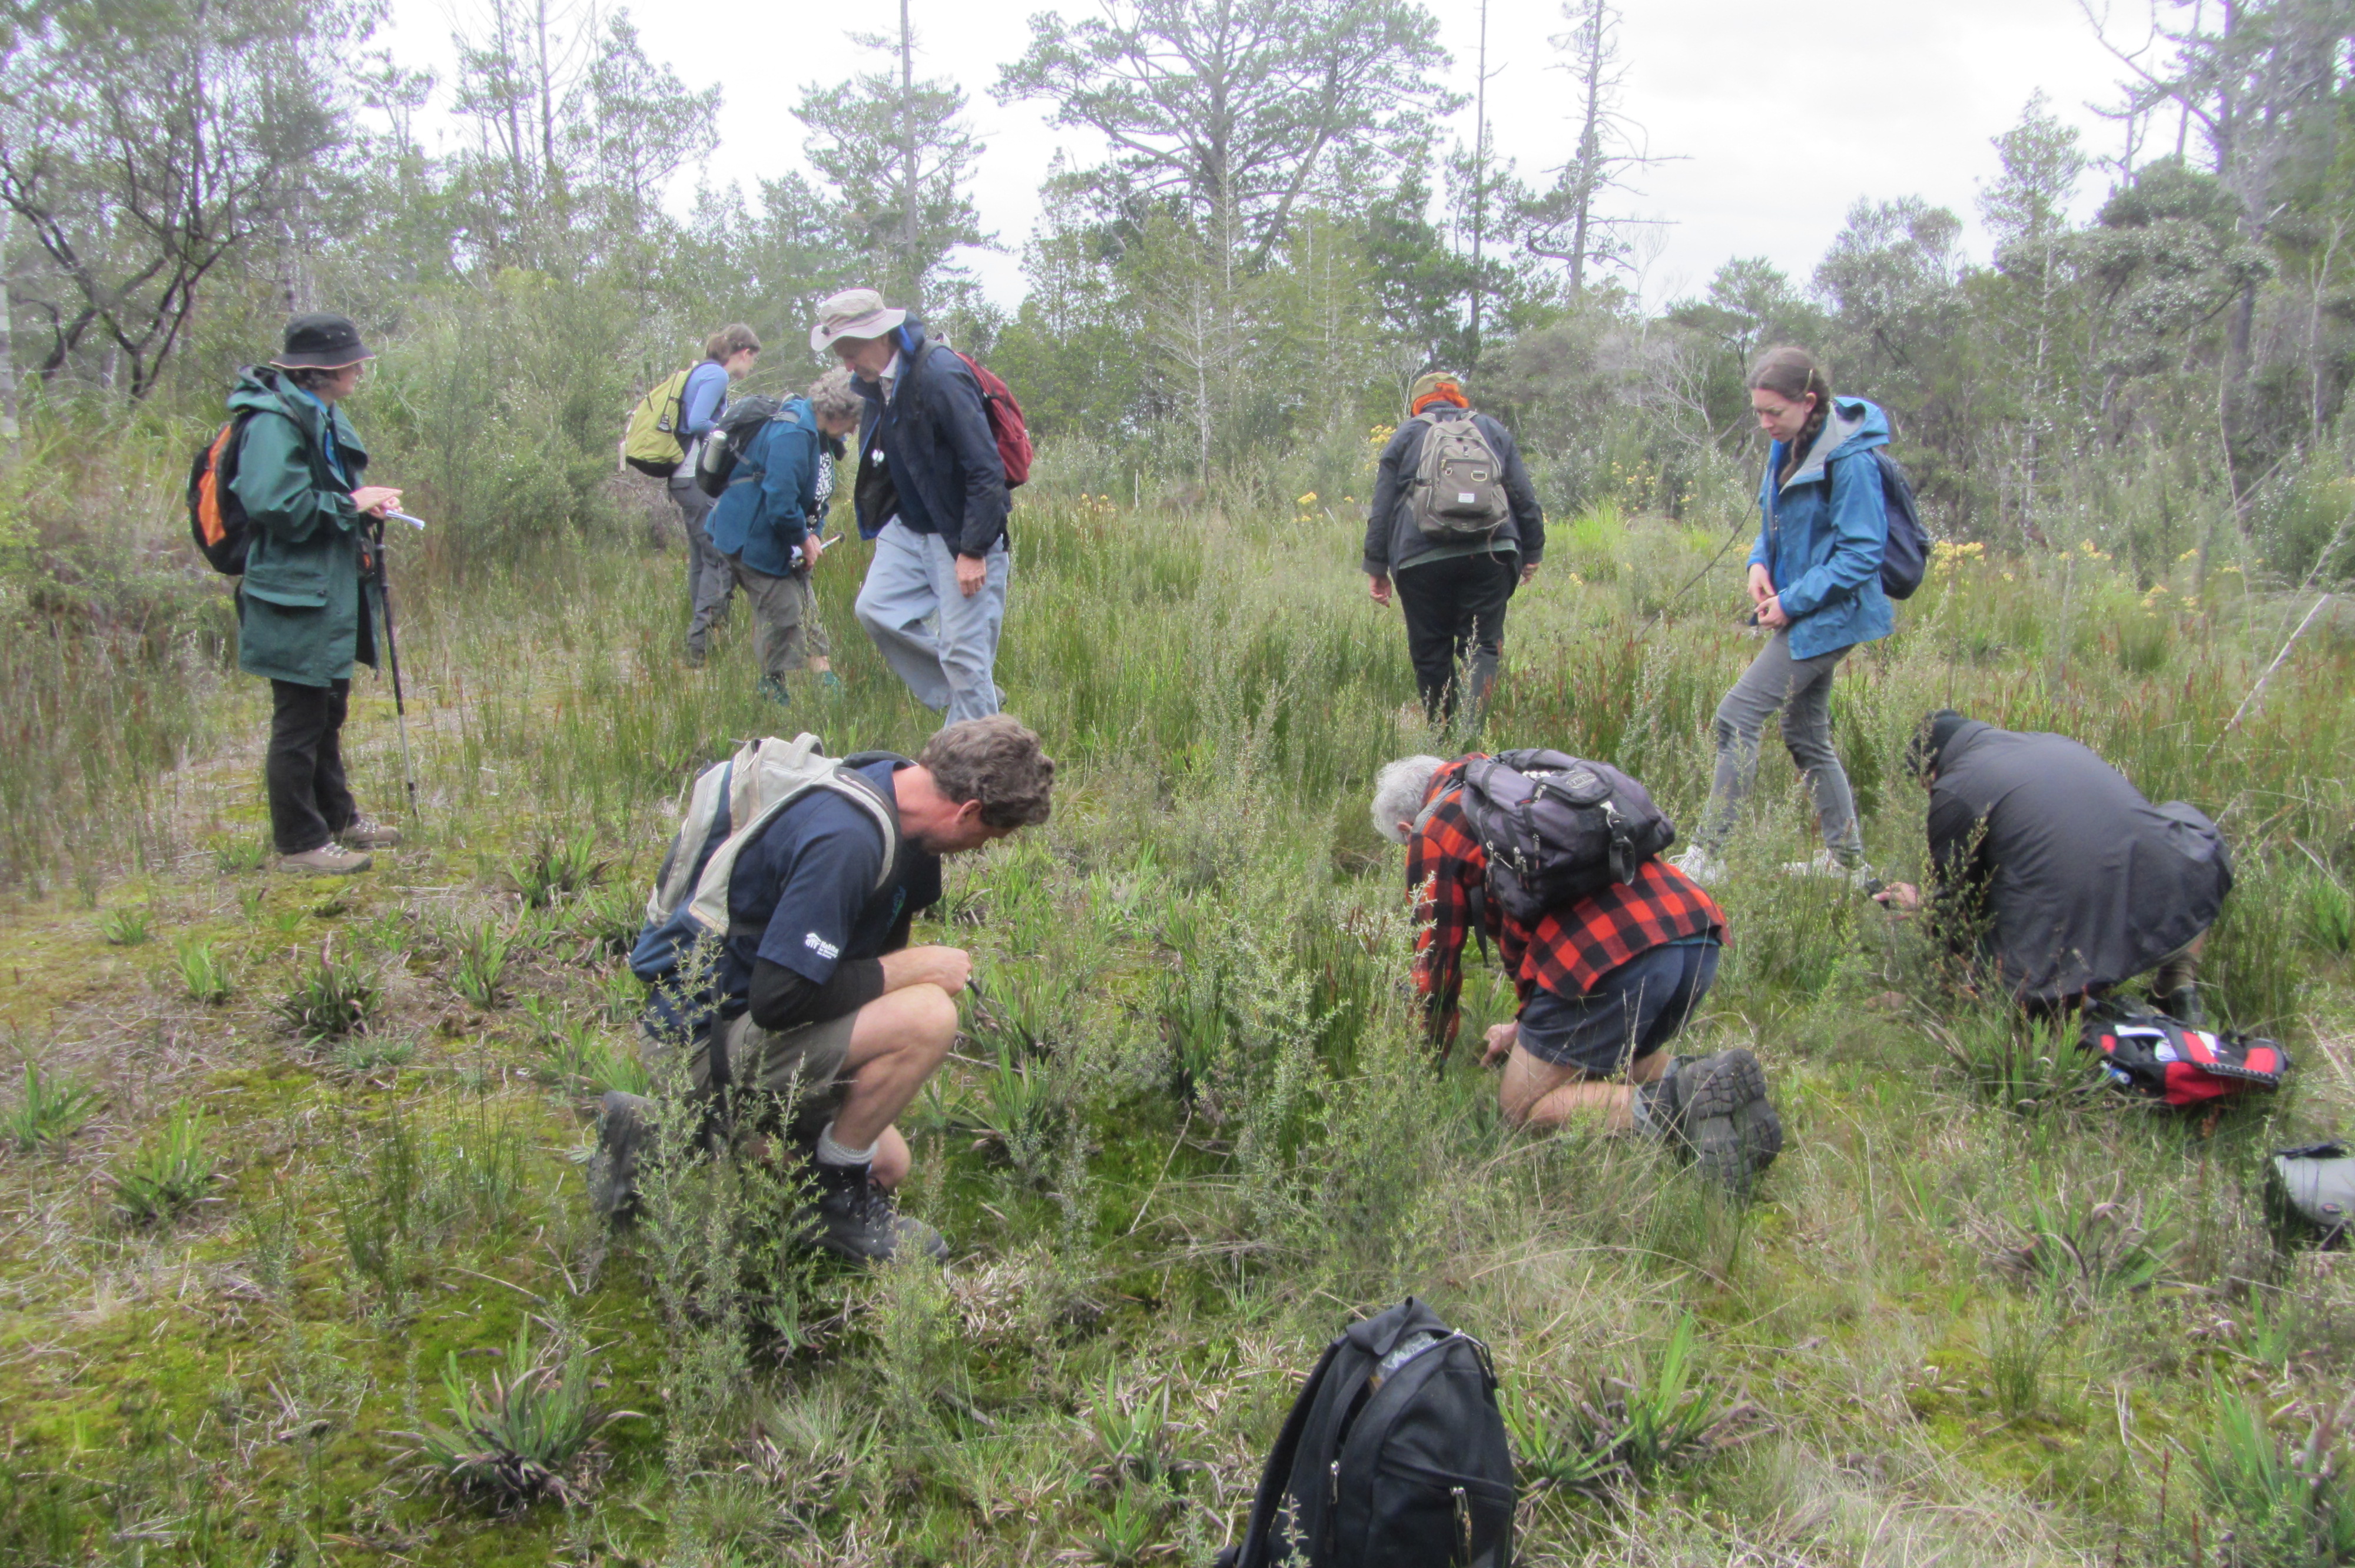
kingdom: Plantae
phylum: Tracheophyta
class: Magnoliopsida
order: Caryophyllales
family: Droseraceae
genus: Drosera
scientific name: Drosera hookeri
